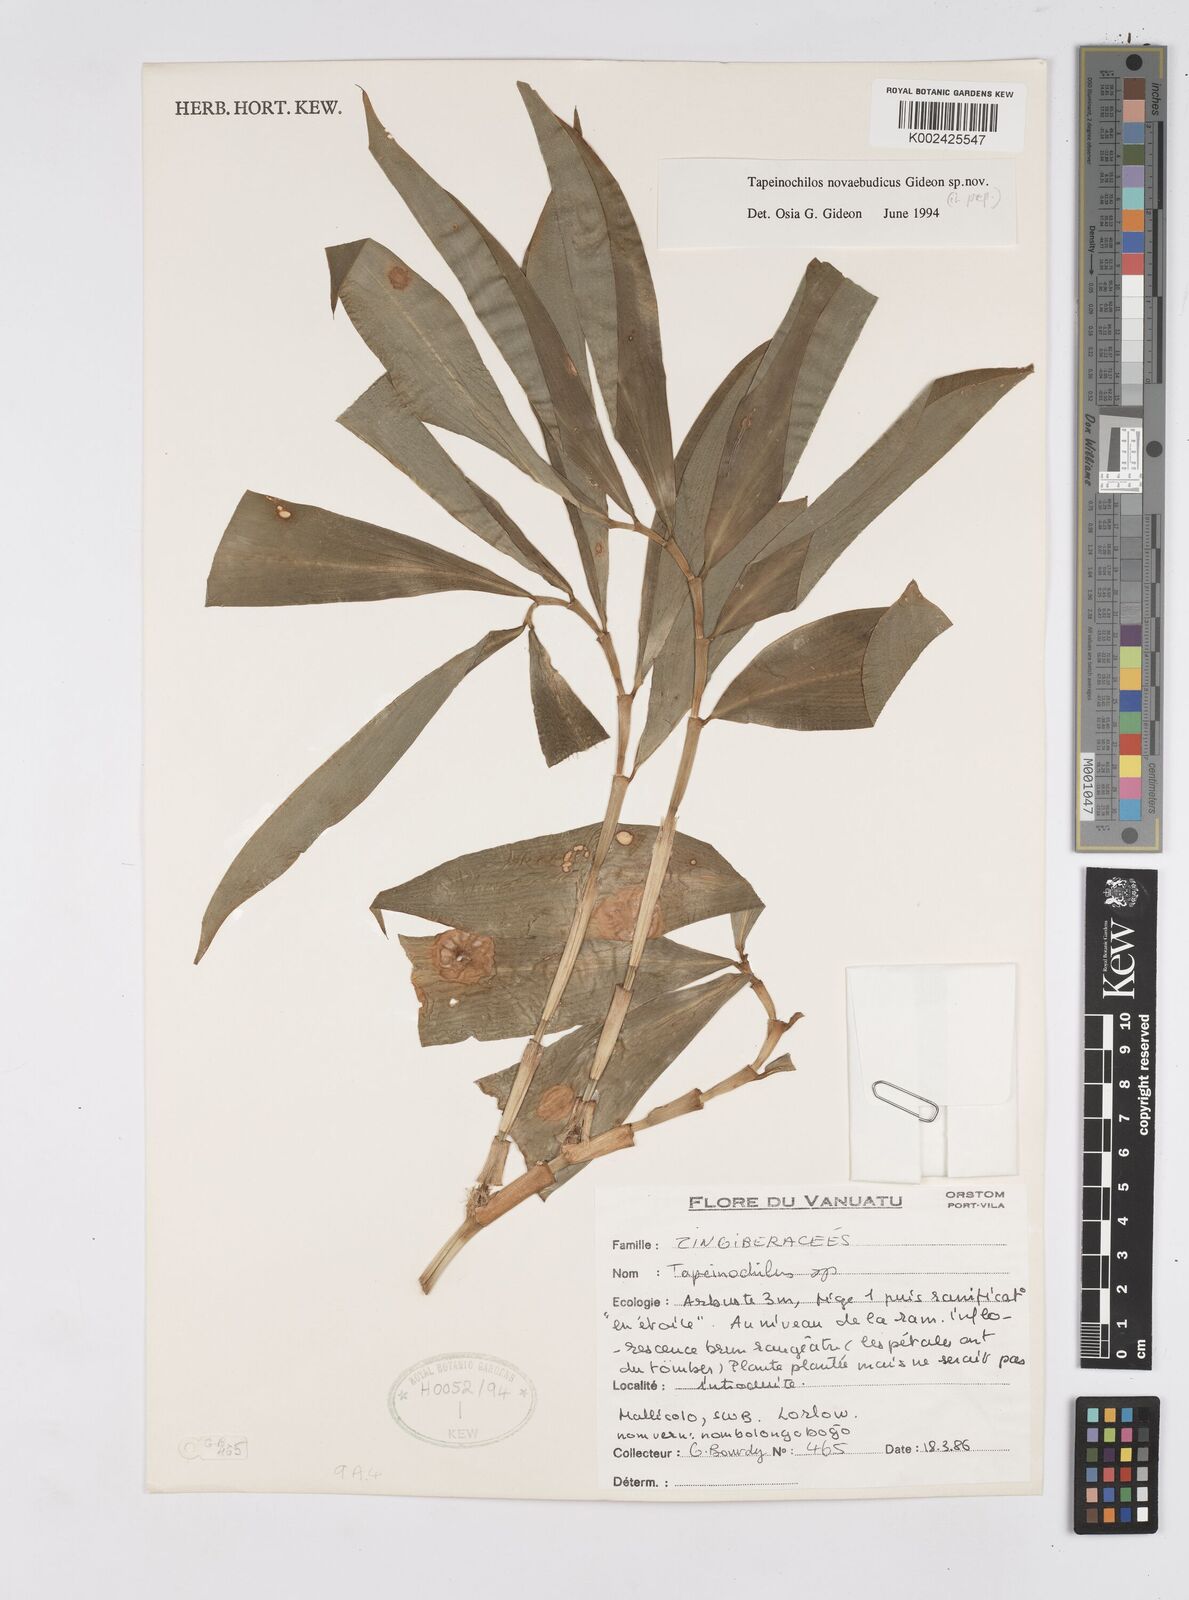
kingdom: Plantae
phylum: Tracheophyta
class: Liliopsida
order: Zingiberales
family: Costaceae
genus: Tapeinochilos
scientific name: Tapeinochilos
